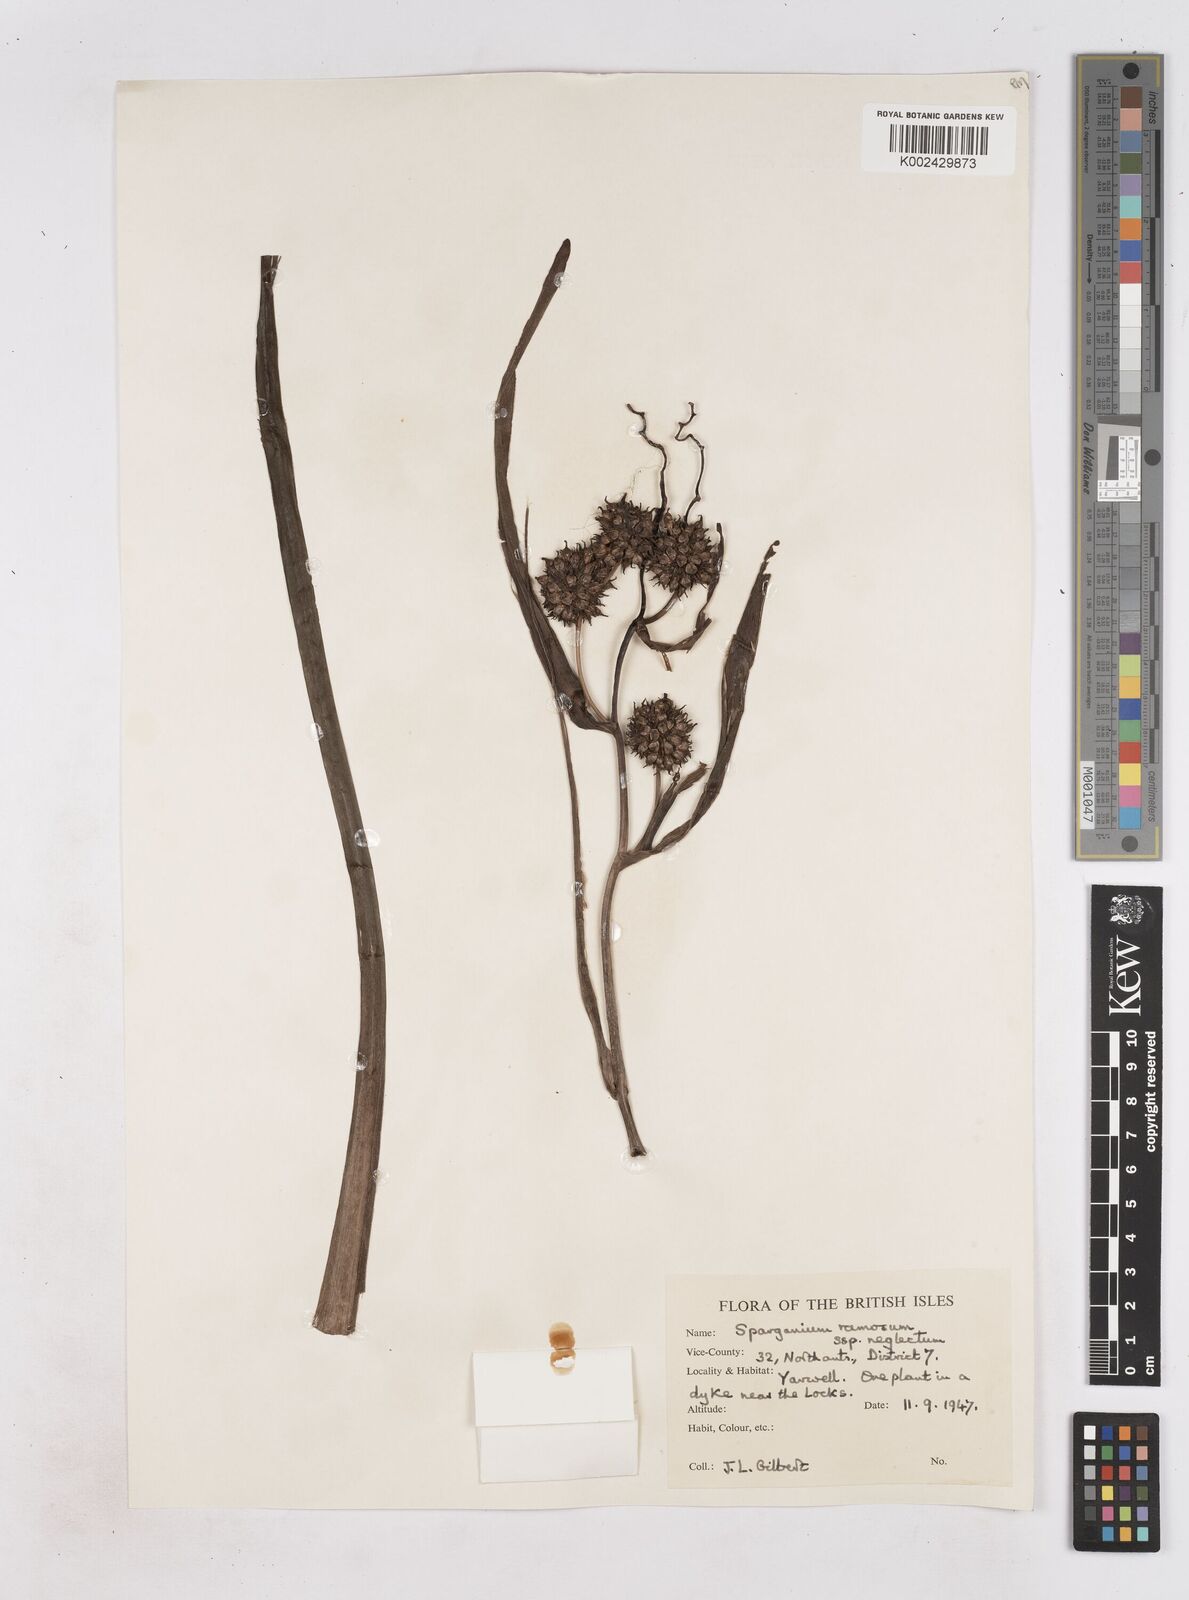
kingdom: Plantae
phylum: Tracheophyta
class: Liliopsida
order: Poales
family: Typhaceae
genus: Sparganium
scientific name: Sparganium erectum
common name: Branched bur-reed
